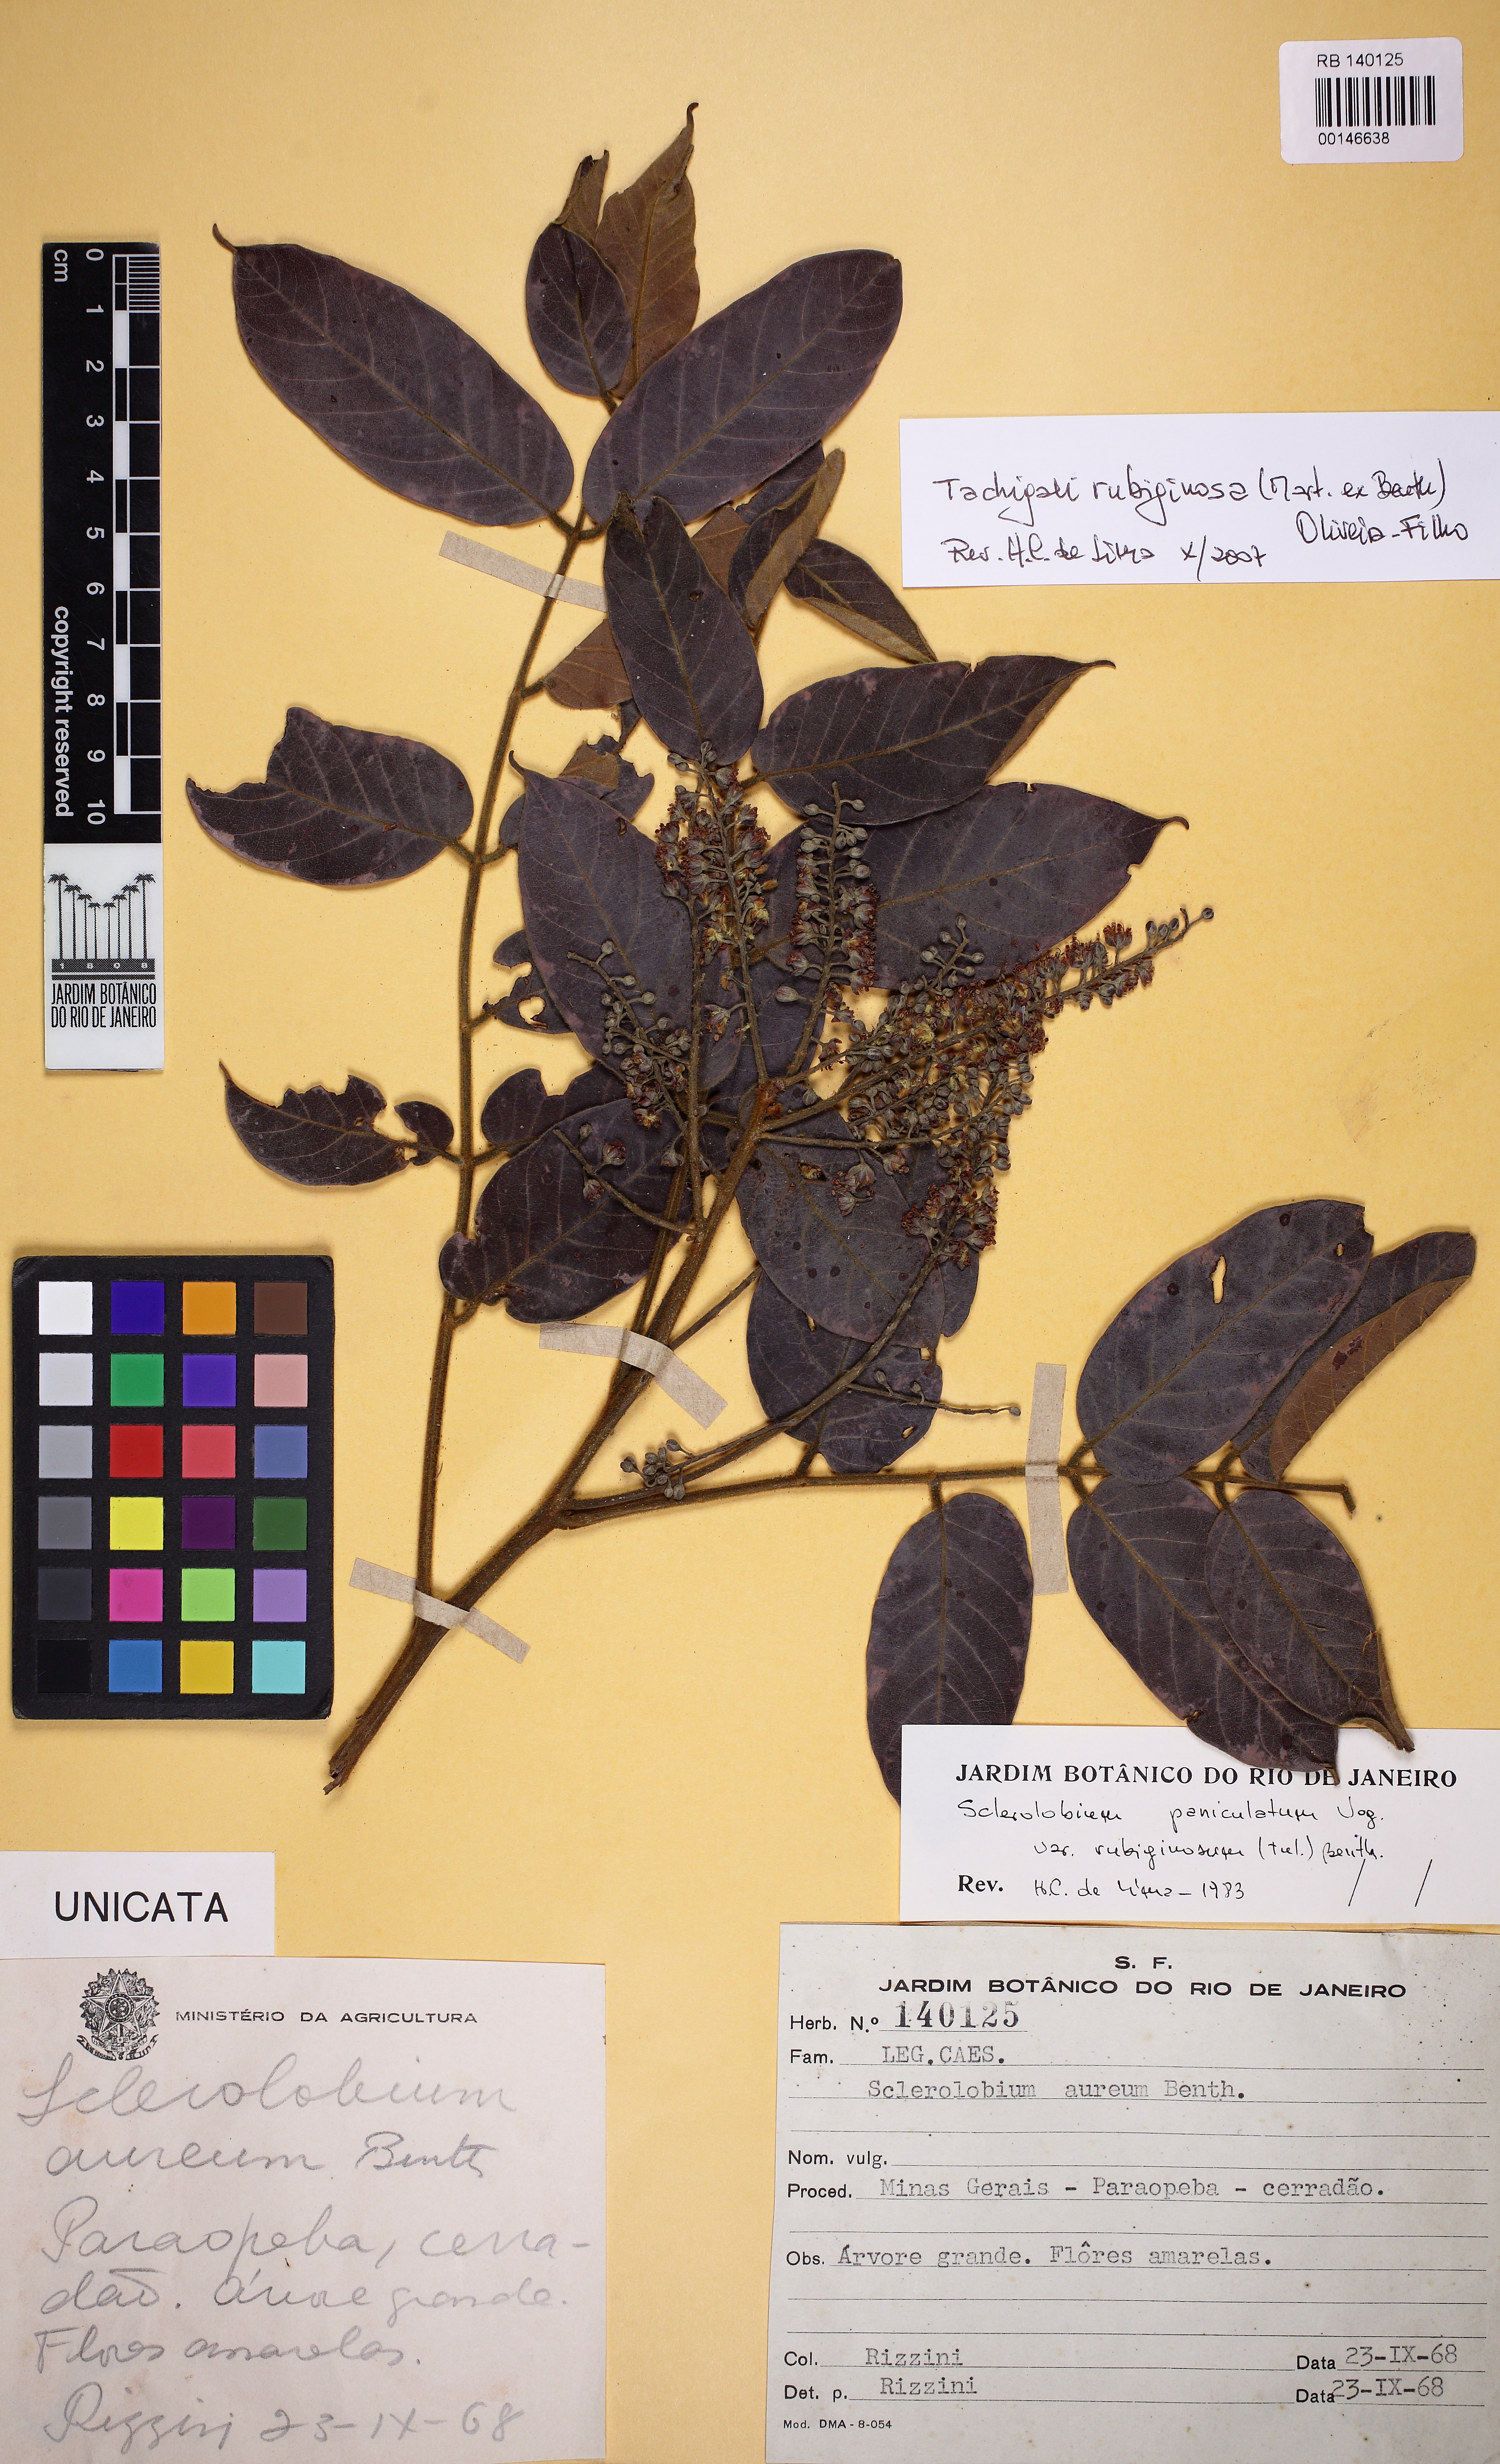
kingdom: Plantae
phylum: Tracheophyta
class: Magnoliopsida
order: Fabales
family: Fabaceae
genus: Tachigali
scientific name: Tachigali rubiginosa
